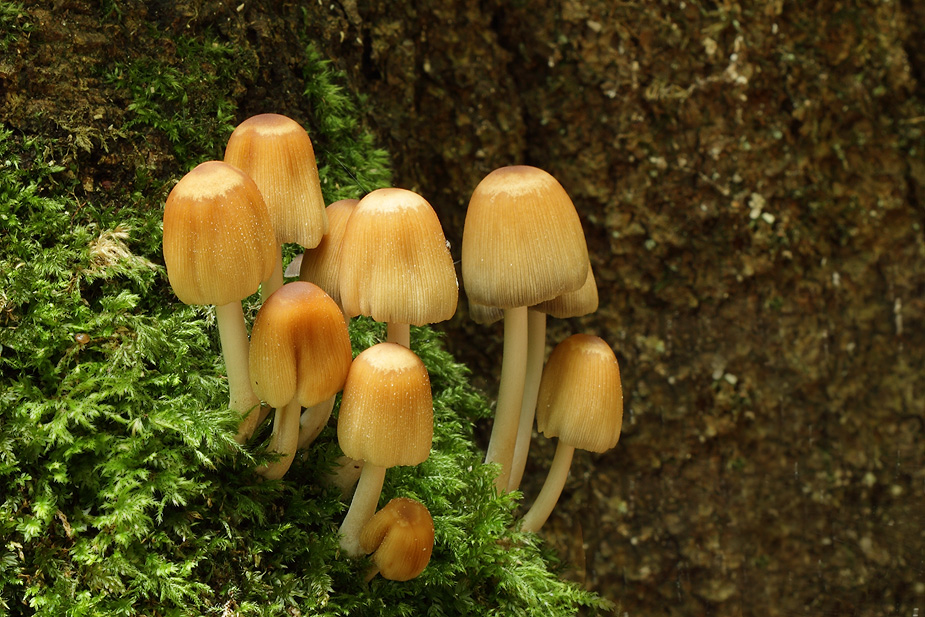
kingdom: Fungi
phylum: Basidiomycota
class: Agaricomycetes
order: Agaricales
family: Psathyrellaceae
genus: Coprinellus
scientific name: Coprinellus micaceus
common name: glimmer-blækhat
